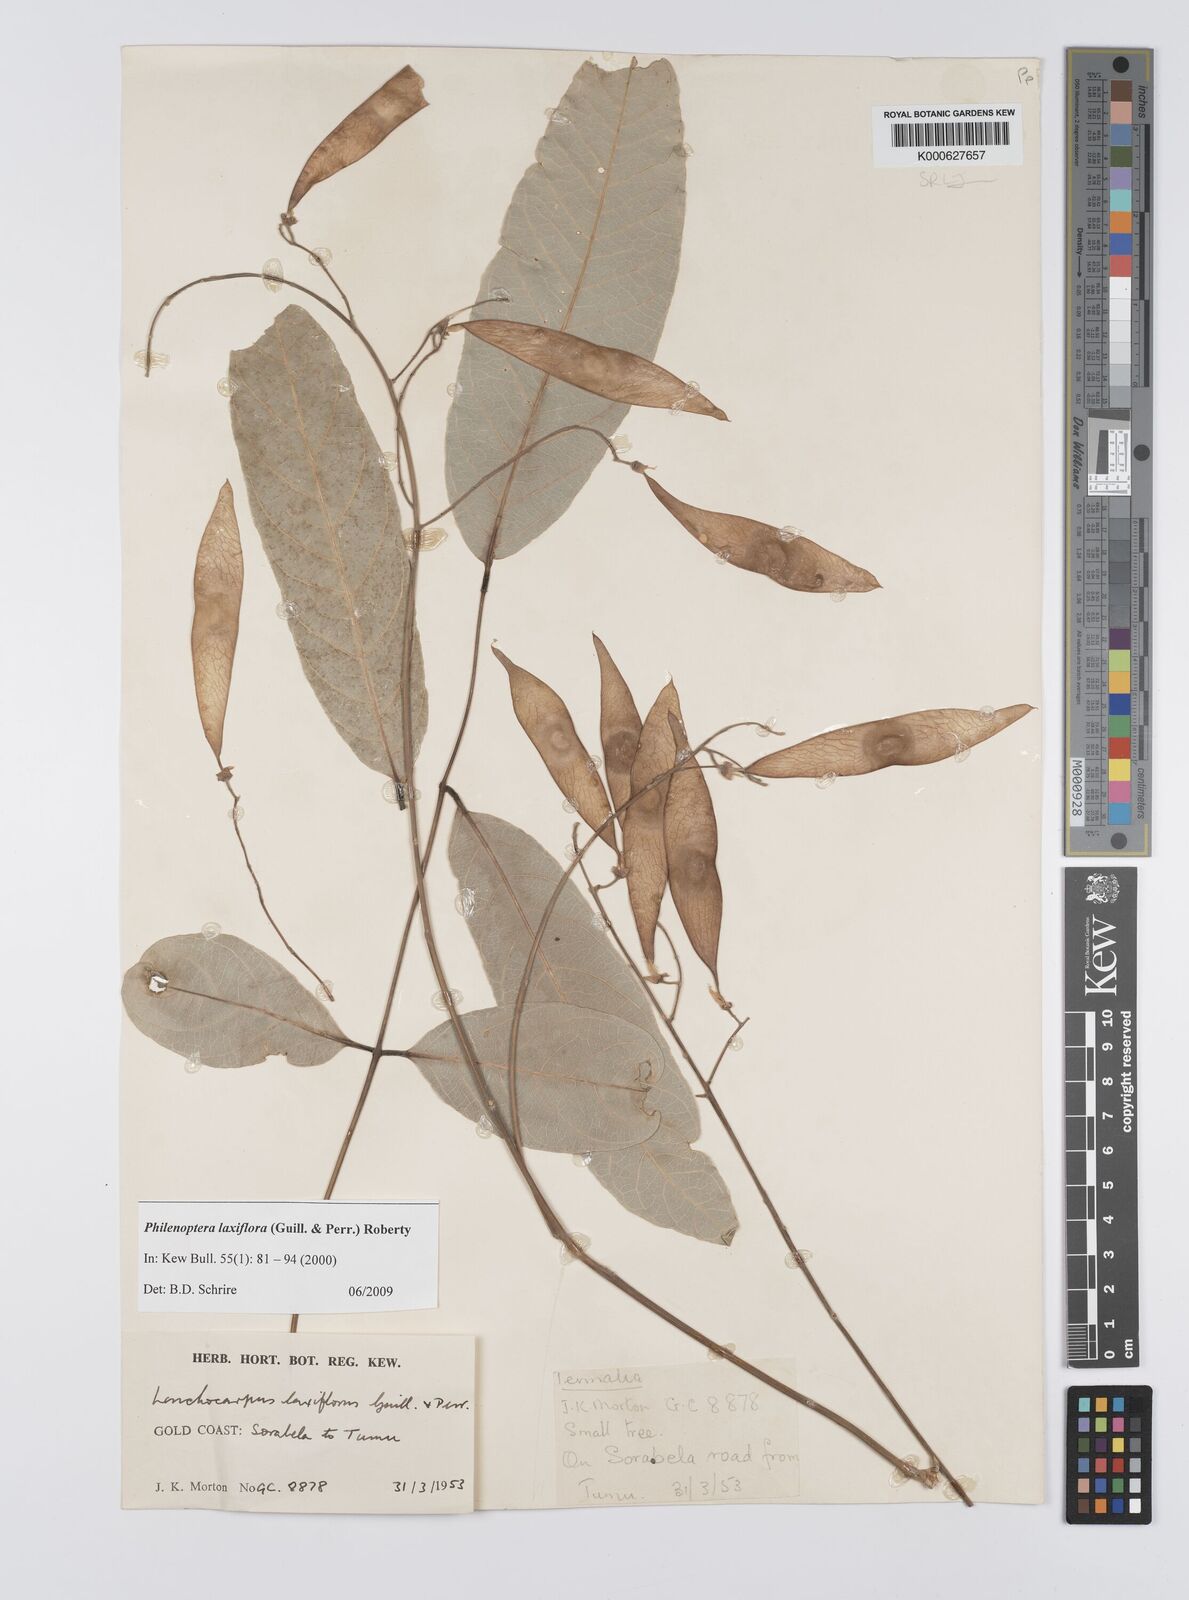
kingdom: Plantae
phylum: Tracheophyta
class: Magnoliopsida
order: Fabales
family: Fabaceae
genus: Philenoptera
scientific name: Philenoptera laxiflora
